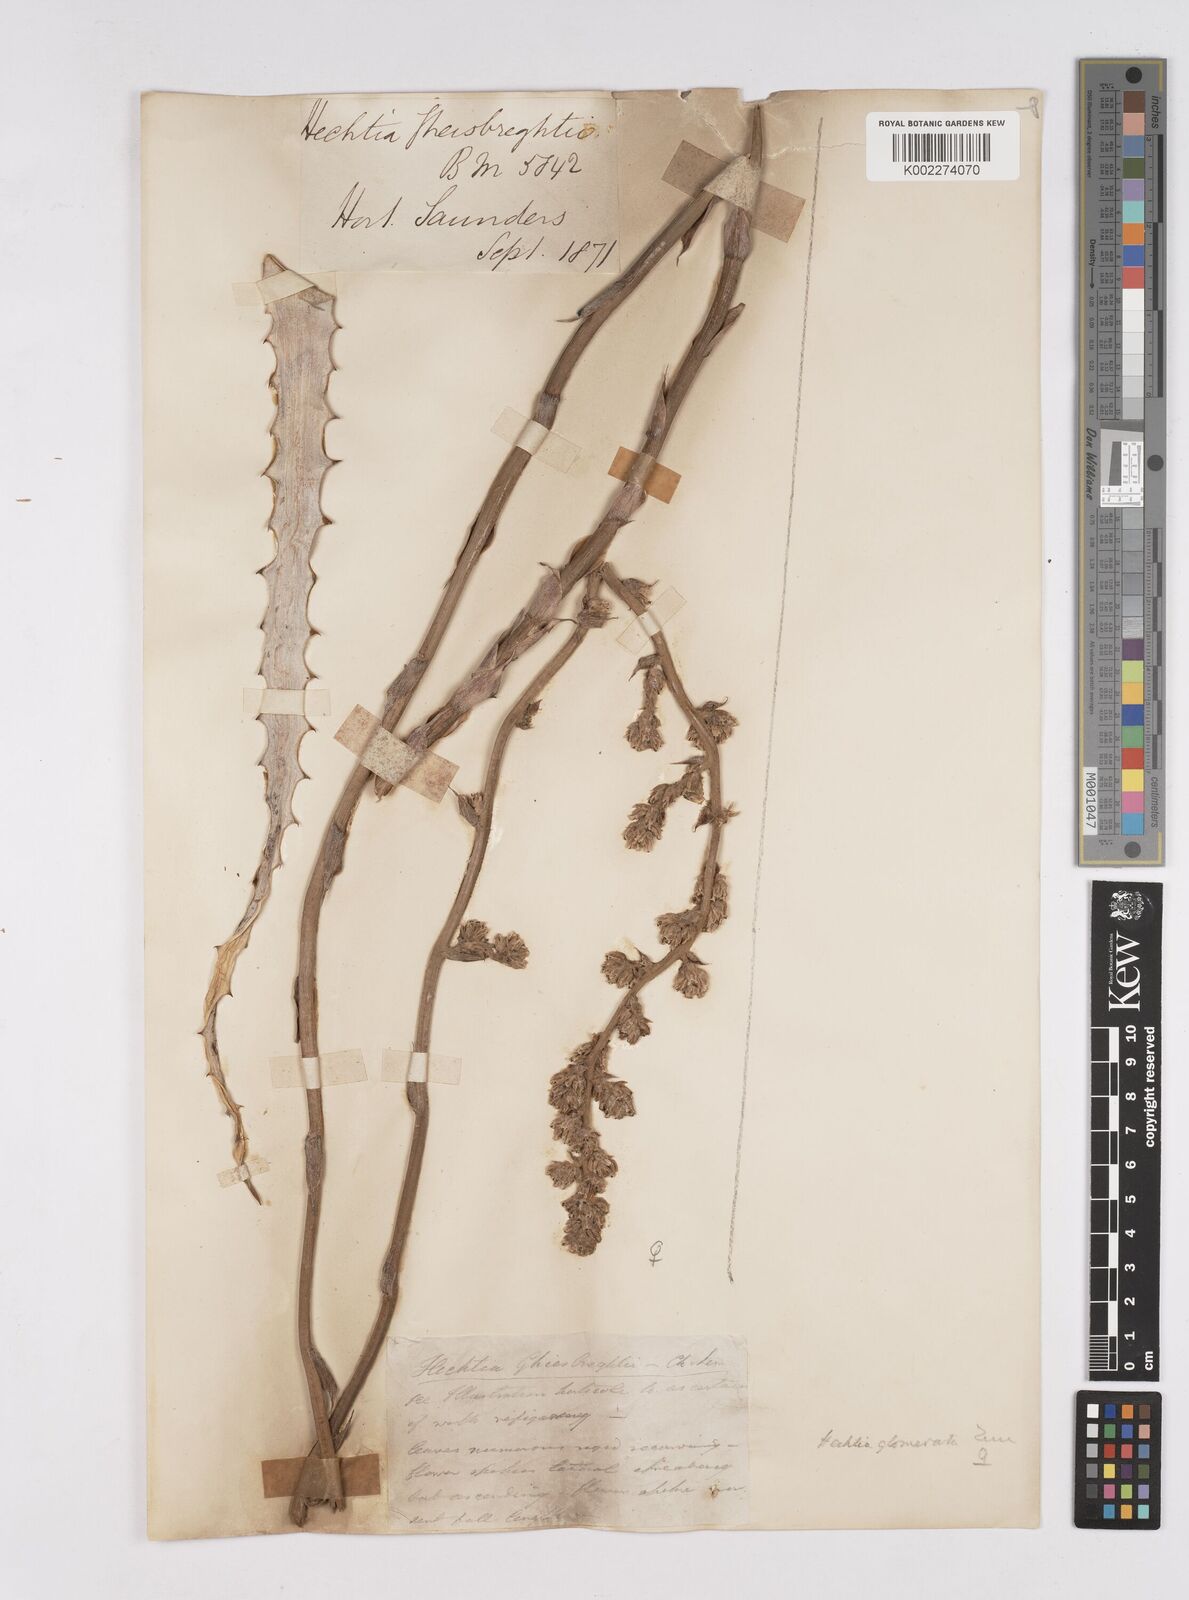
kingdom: Plantae
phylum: Tracheophyta
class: Liliopsida
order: Poales
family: Bromeliaceae
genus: Hechtia
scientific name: Hechtia glomerata
